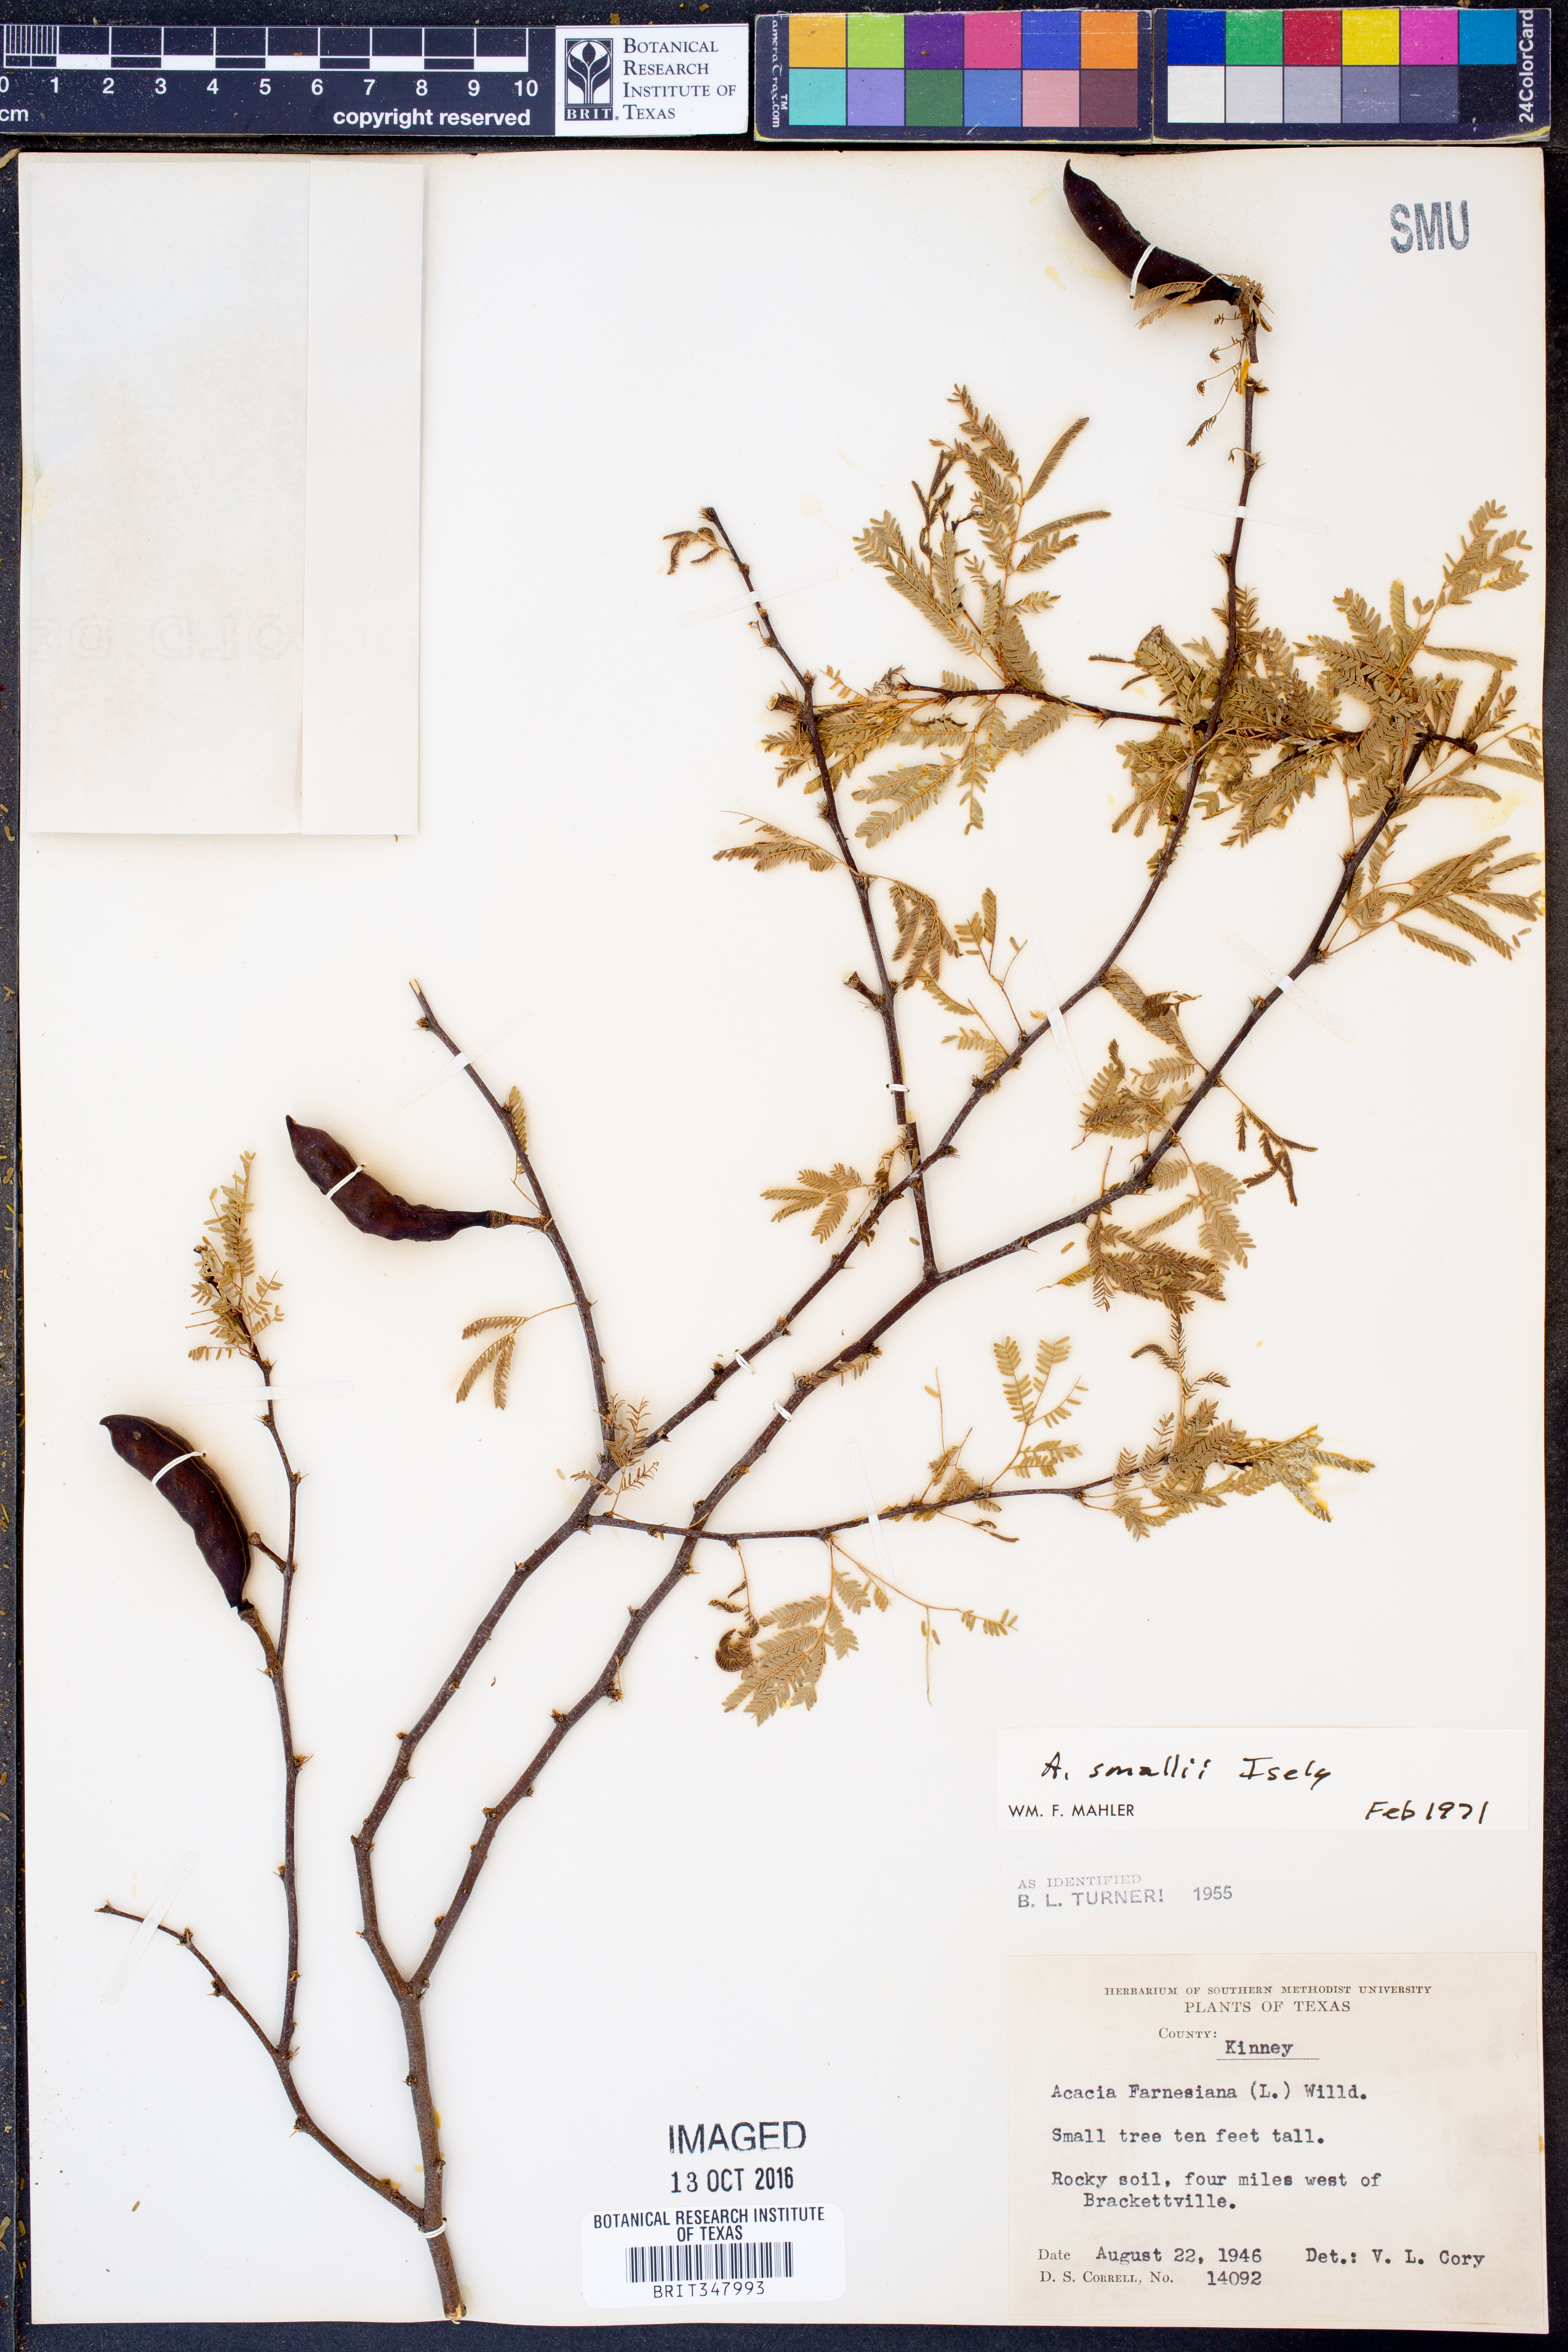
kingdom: Plantae
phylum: Tracheophyta
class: Magnoliopsida
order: Fabales
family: Fabaceae
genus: Vachellia
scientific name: Vachellia farnesiana
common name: Sweet acacia
